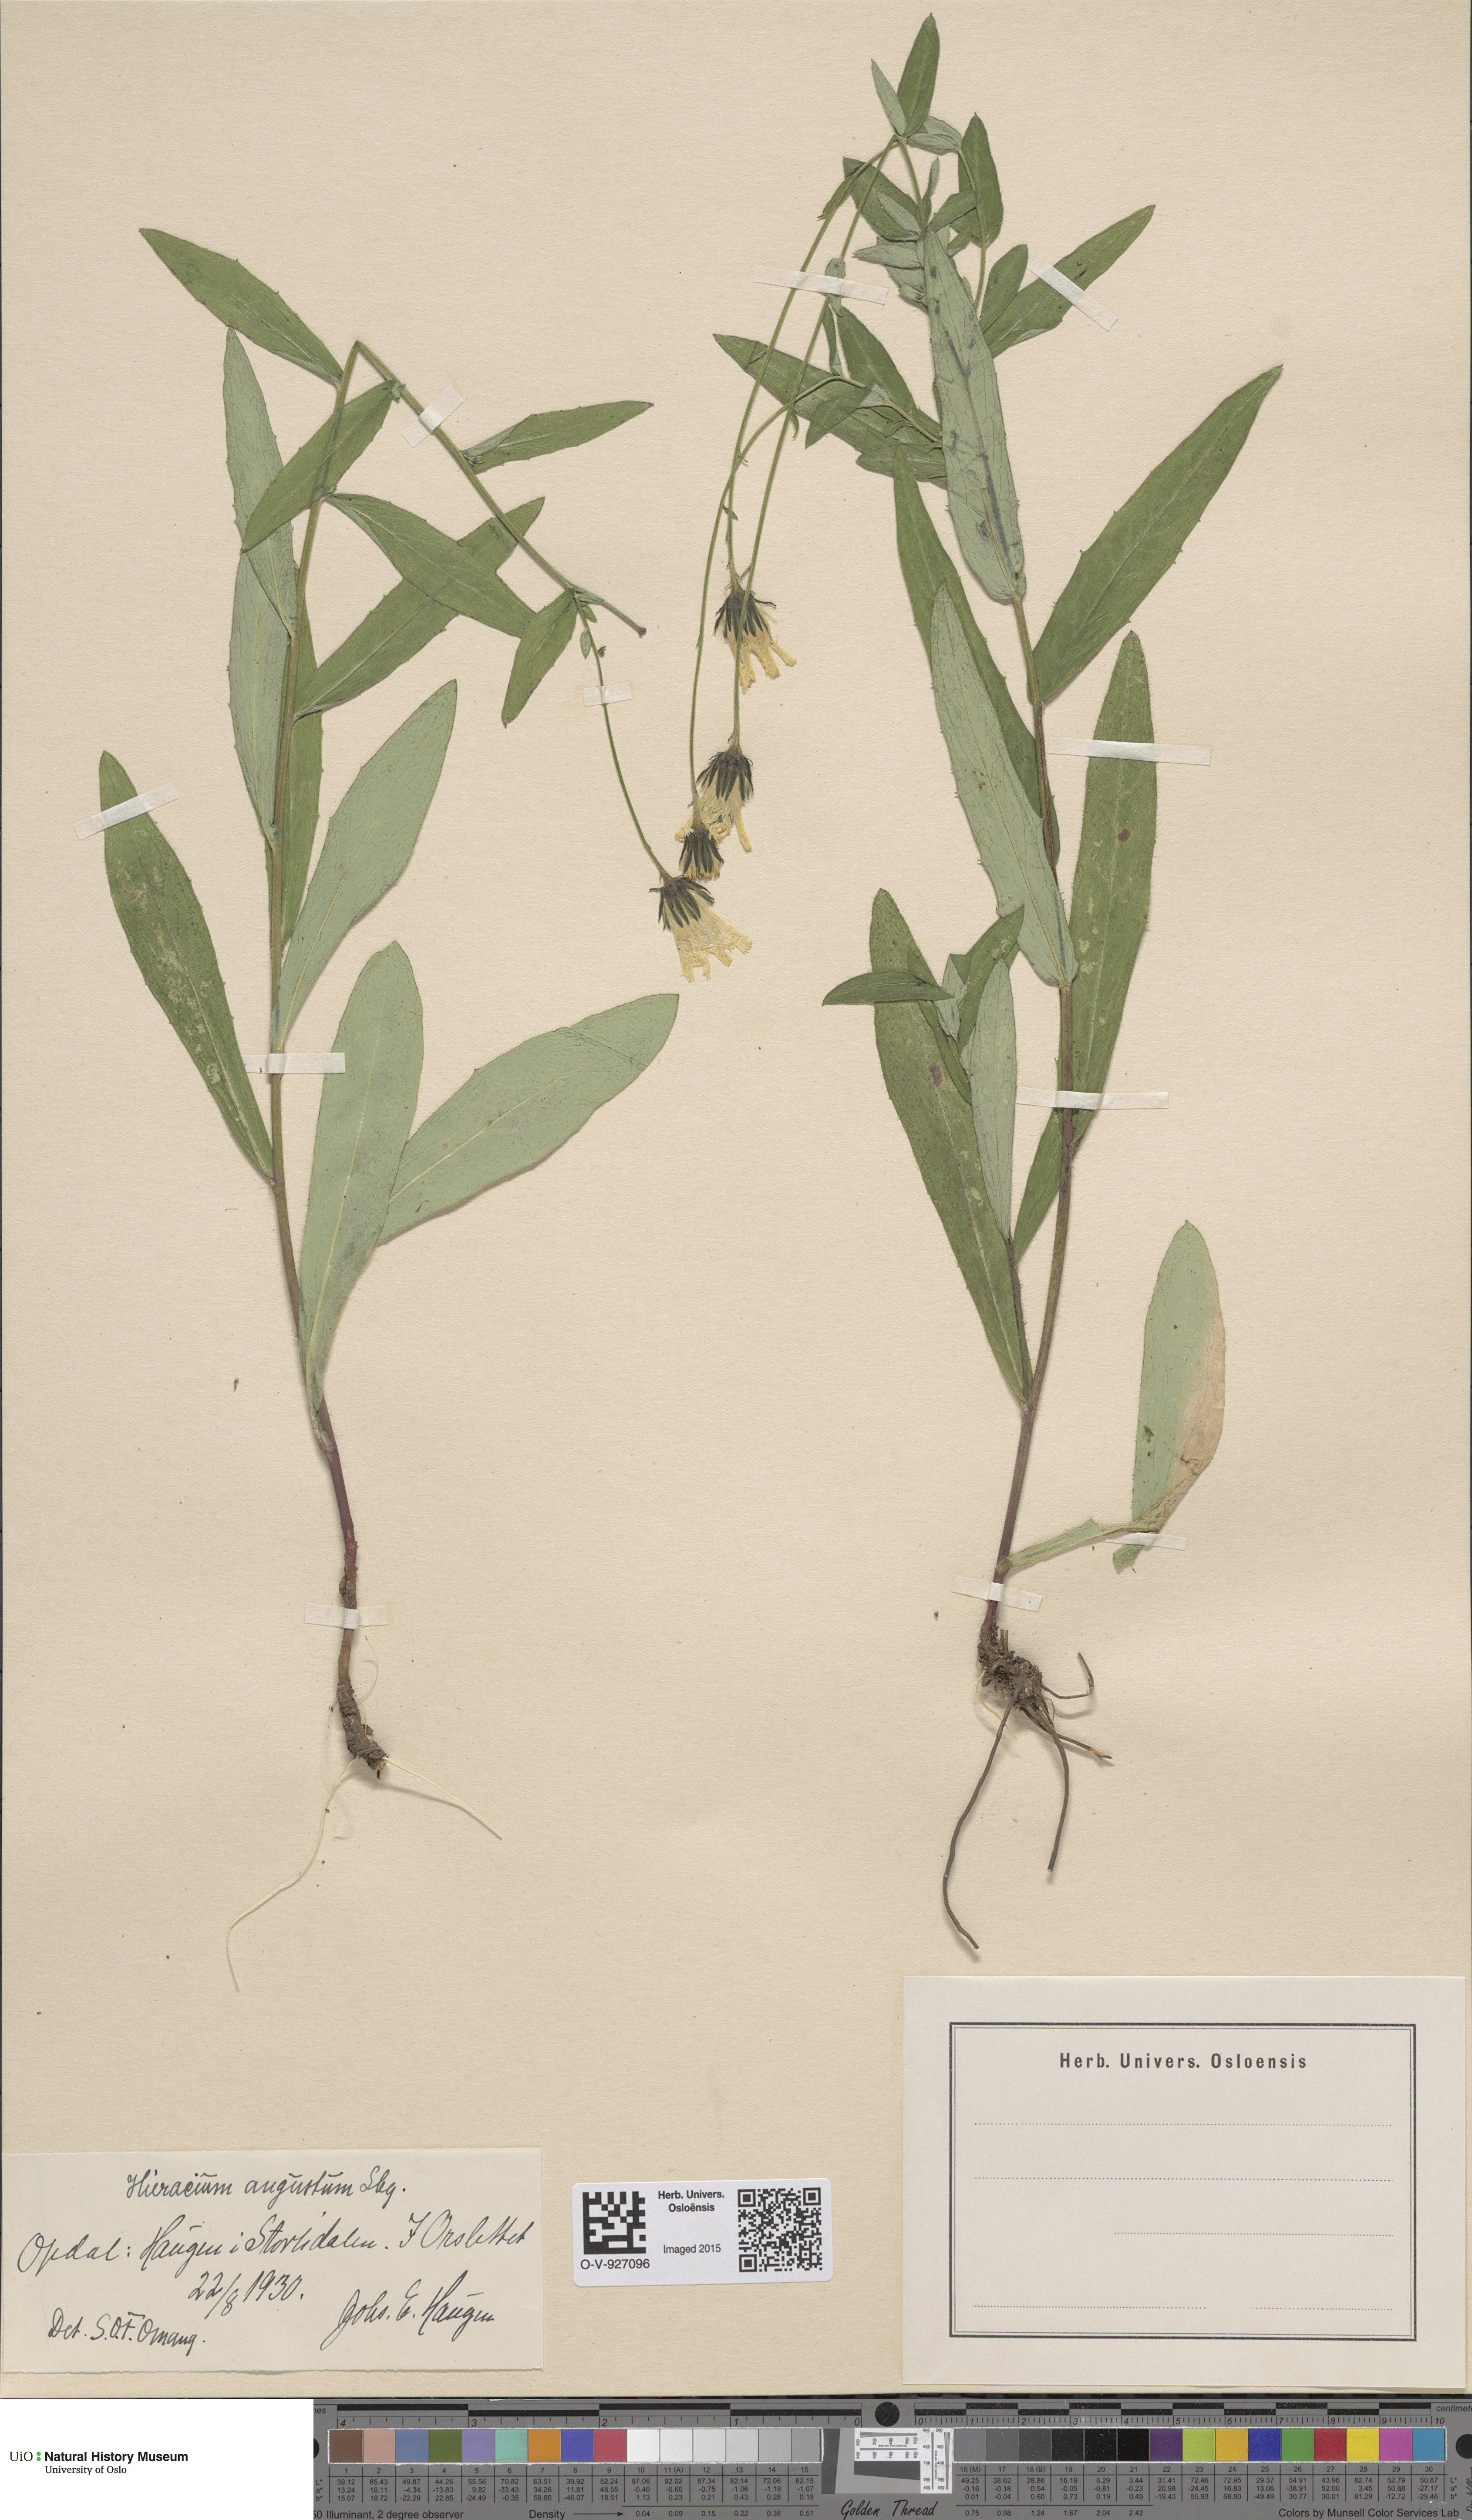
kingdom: Plantae
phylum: Tracheophyta
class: Magnoliopsida
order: Asterales
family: Asteraceae
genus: Hieracium
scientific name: Hieracium angustum
